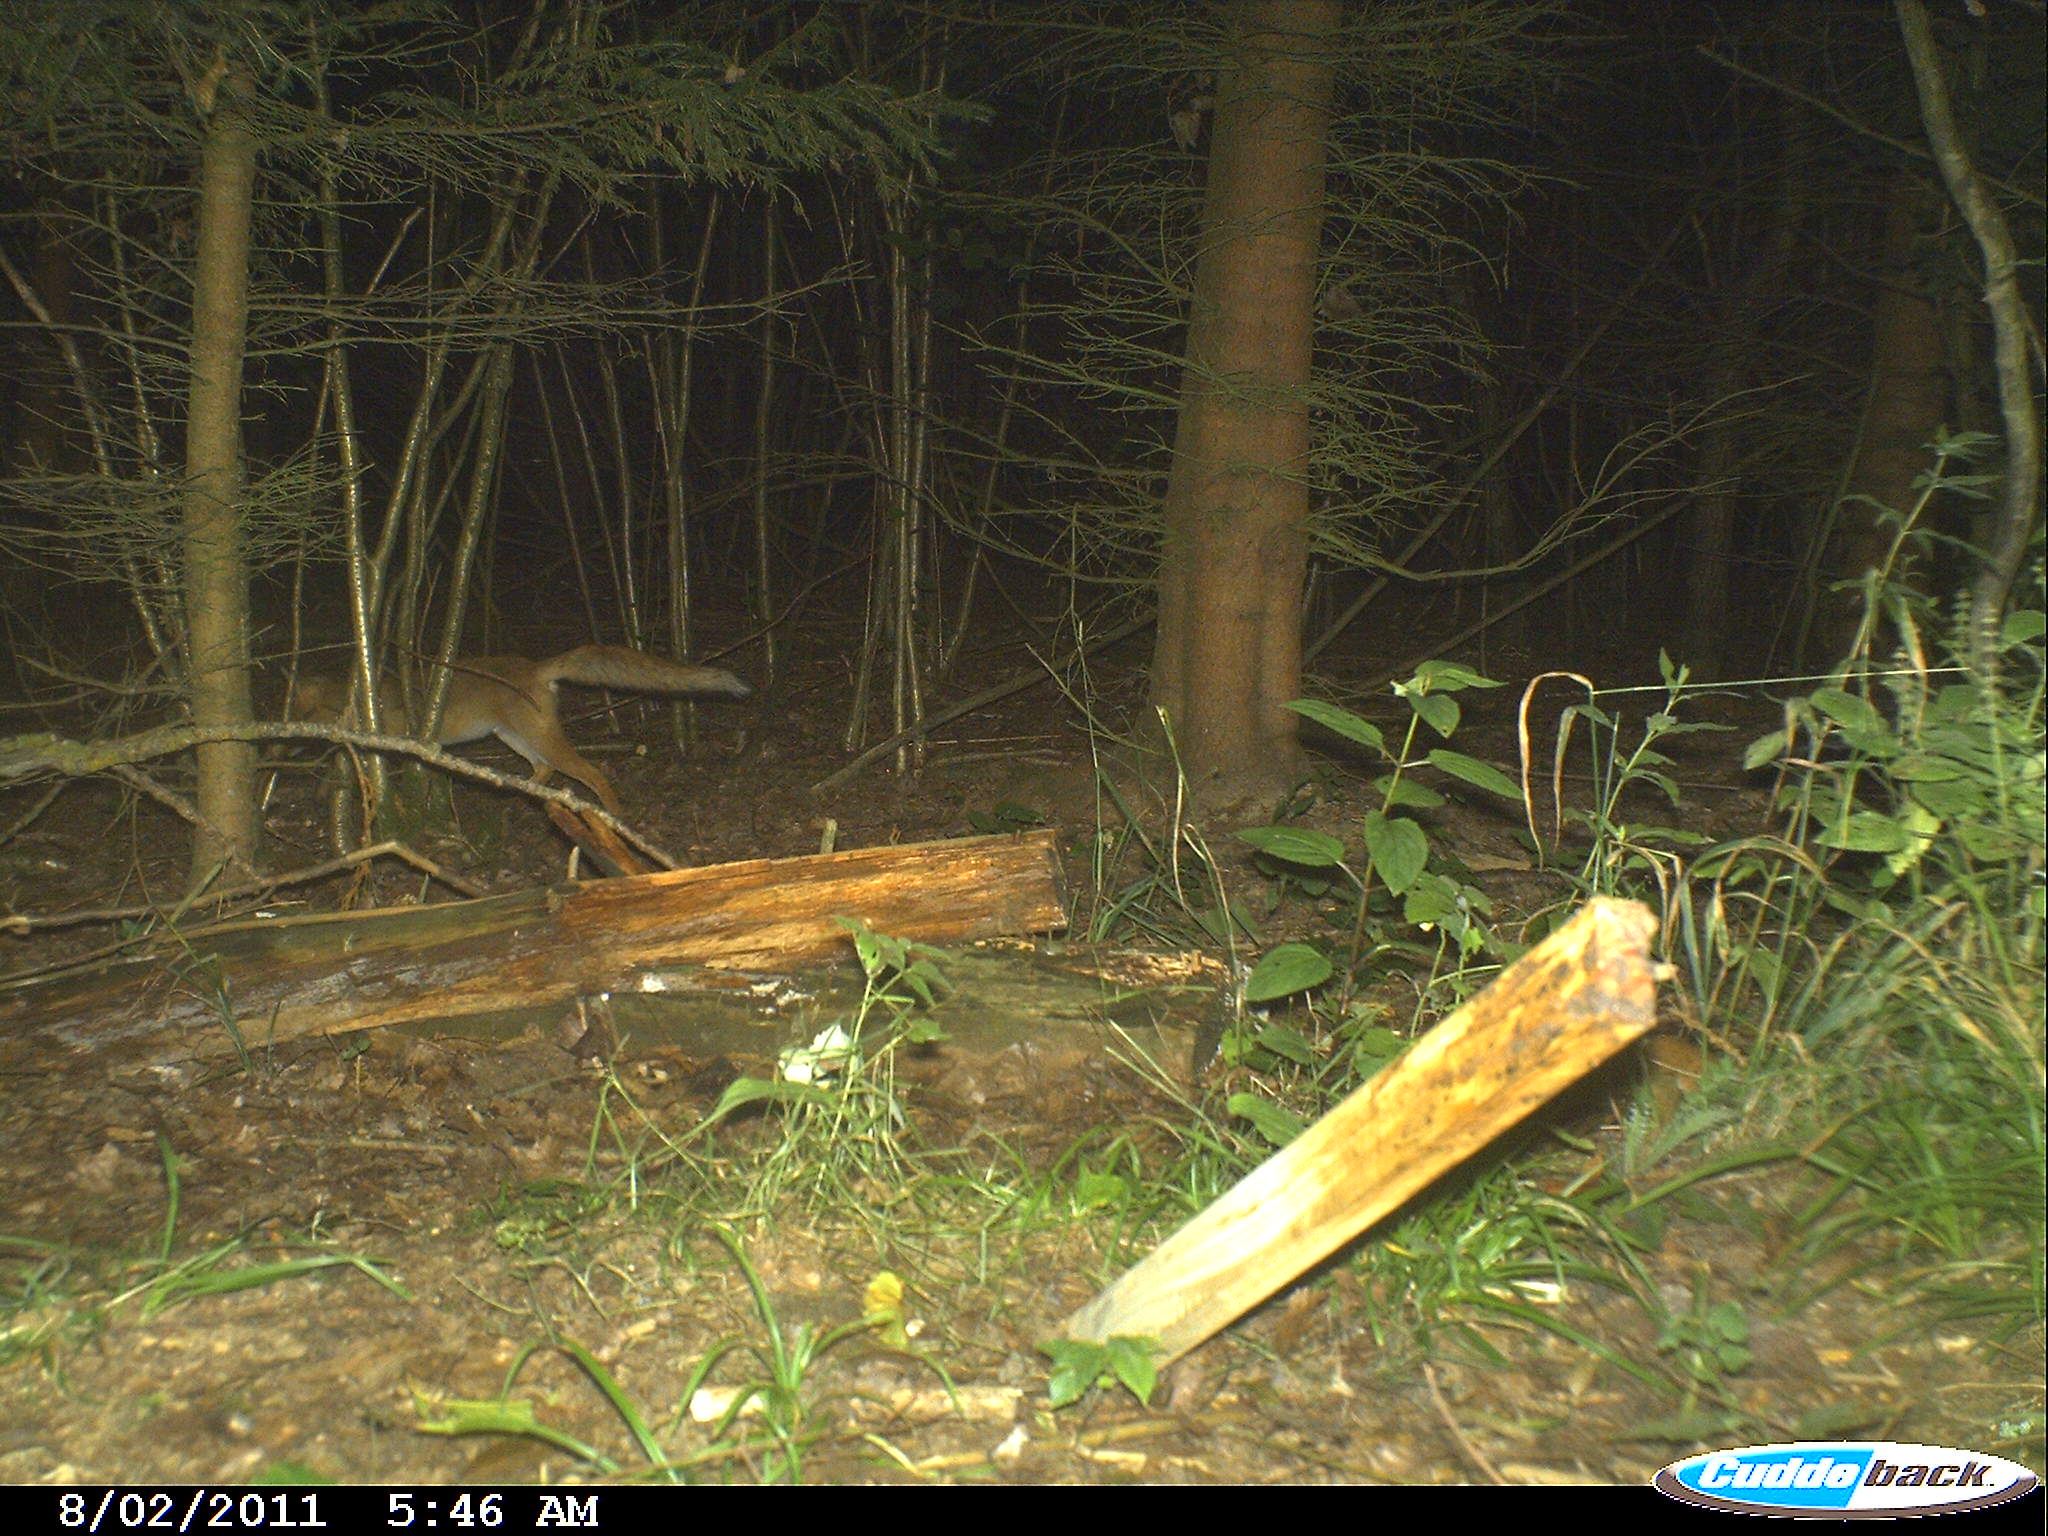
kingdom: Animalia
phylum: Chordata
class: Mammalia
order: Carnivora
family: Canidae
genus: Vulpes
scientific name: Vulpes vulpes
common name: Red fox
